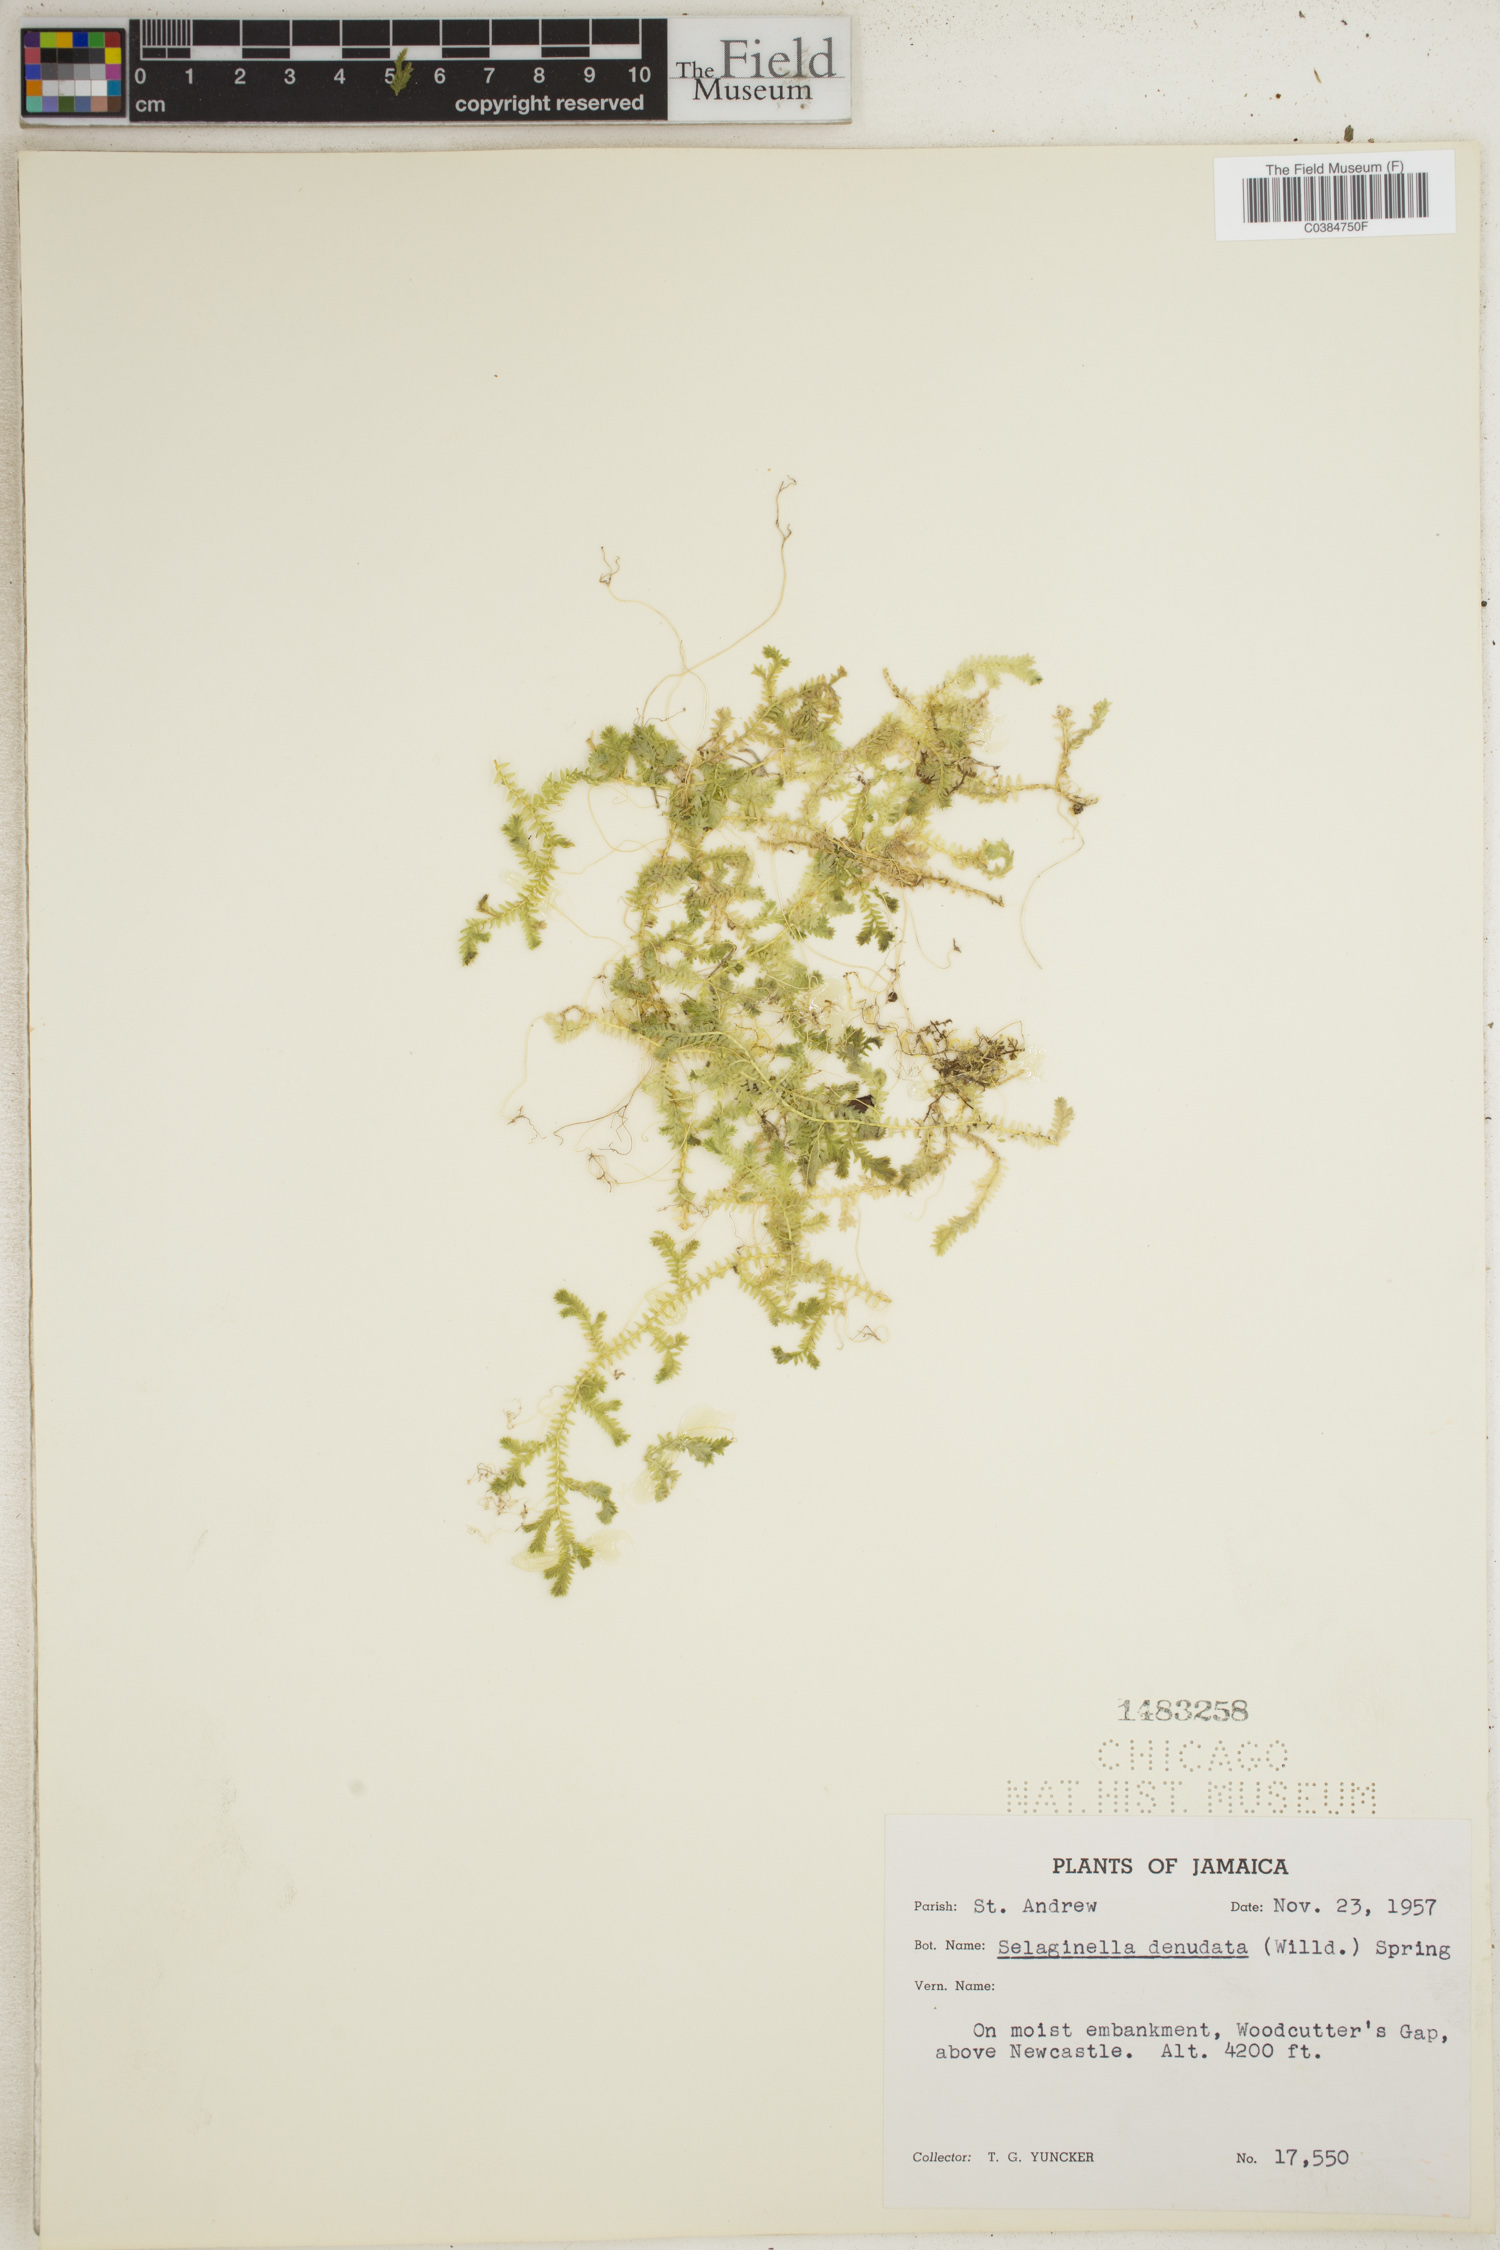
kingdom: Plantae
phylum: Tracheophyta
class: Lycopodiopsida
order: Selaginellales
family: Selaginellaceae
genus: Selaginella
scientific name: Selaginella denudata
